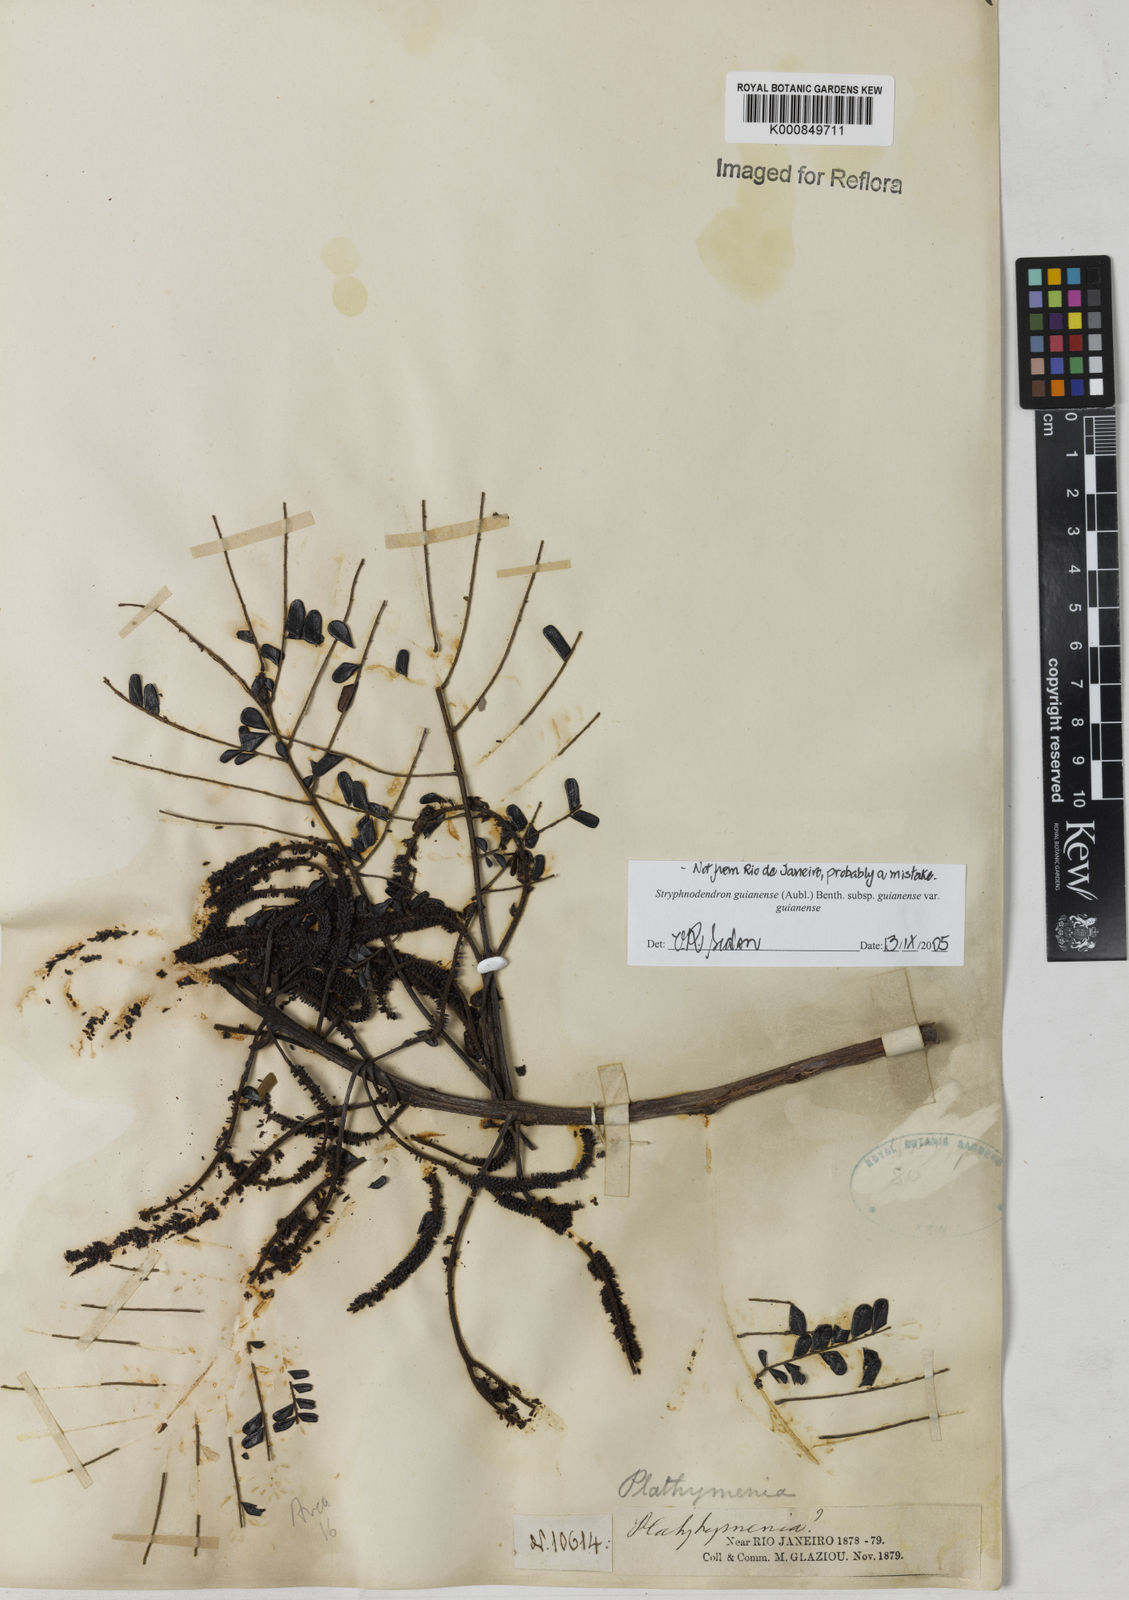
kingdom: Plantae
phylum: Tracheophyta
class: Magnoliopsida
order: Fabales
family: Fabaceae
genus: Stryphnodendron
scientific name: Stryphnodendron guianense
